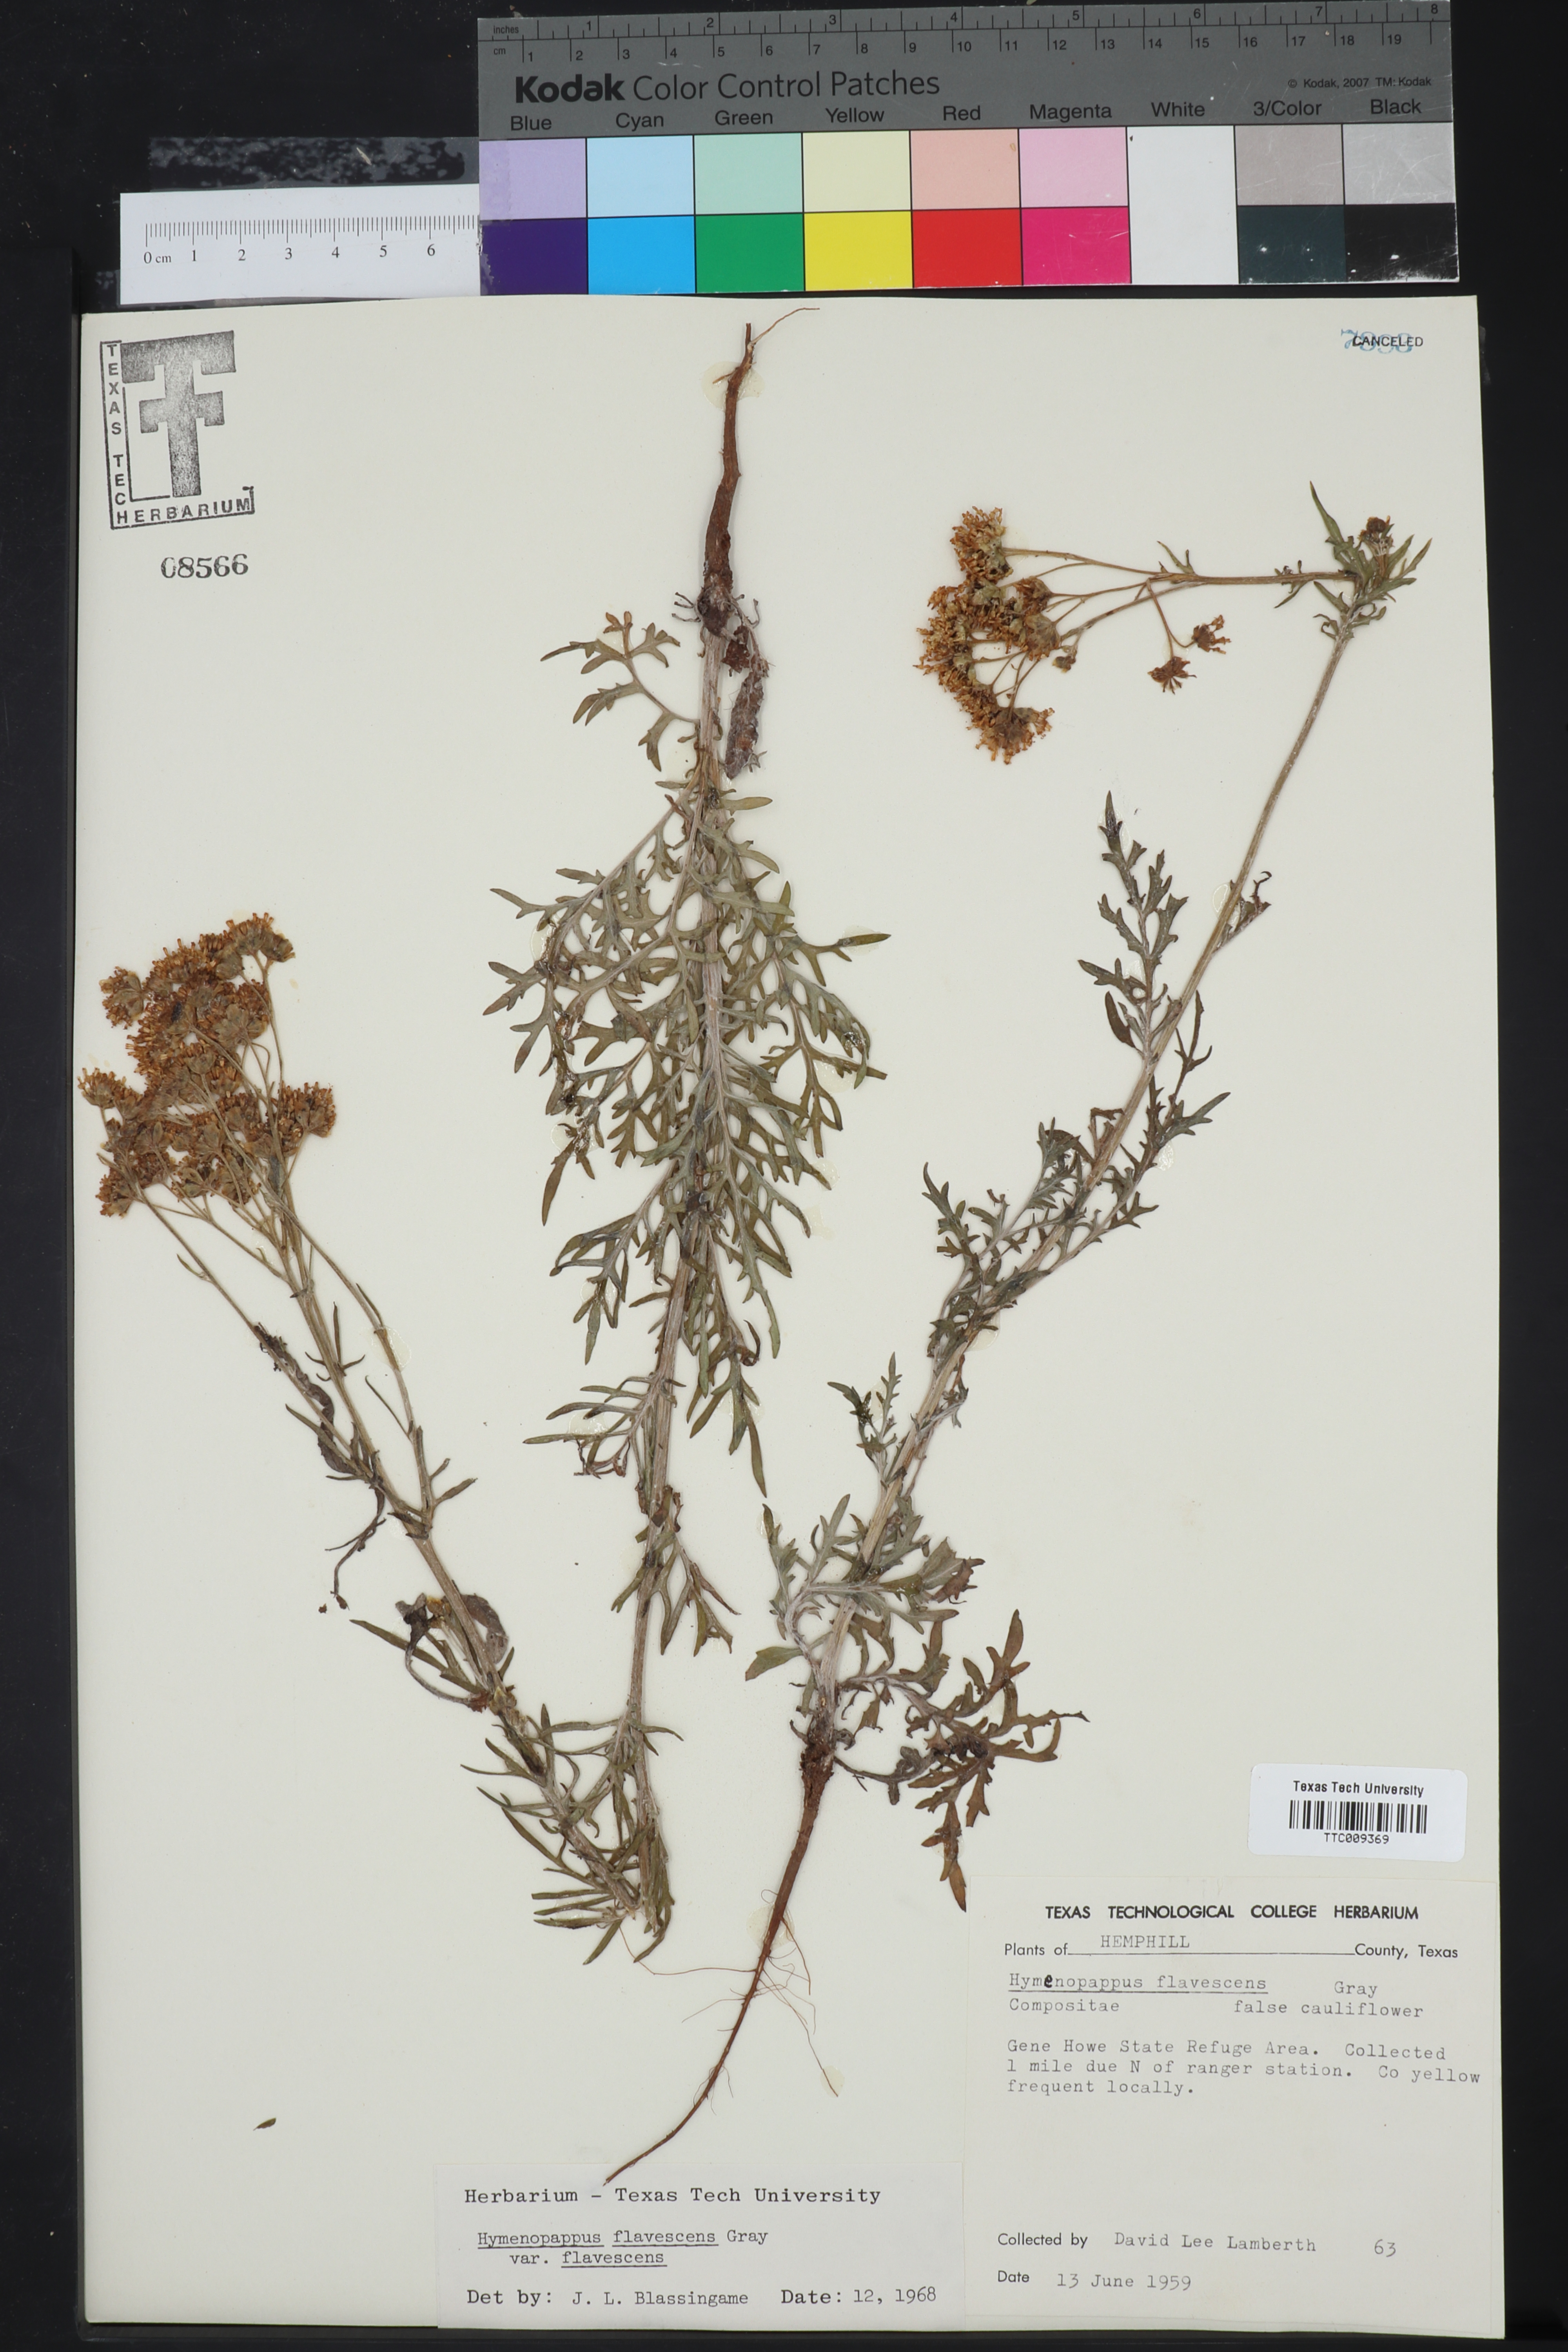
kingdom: Plantae
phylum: Tracheophyta
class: Magnoliopsida
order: Asterales
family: Asteraceae
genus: Hymenopappus
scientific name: Hymenopappus flavescens
